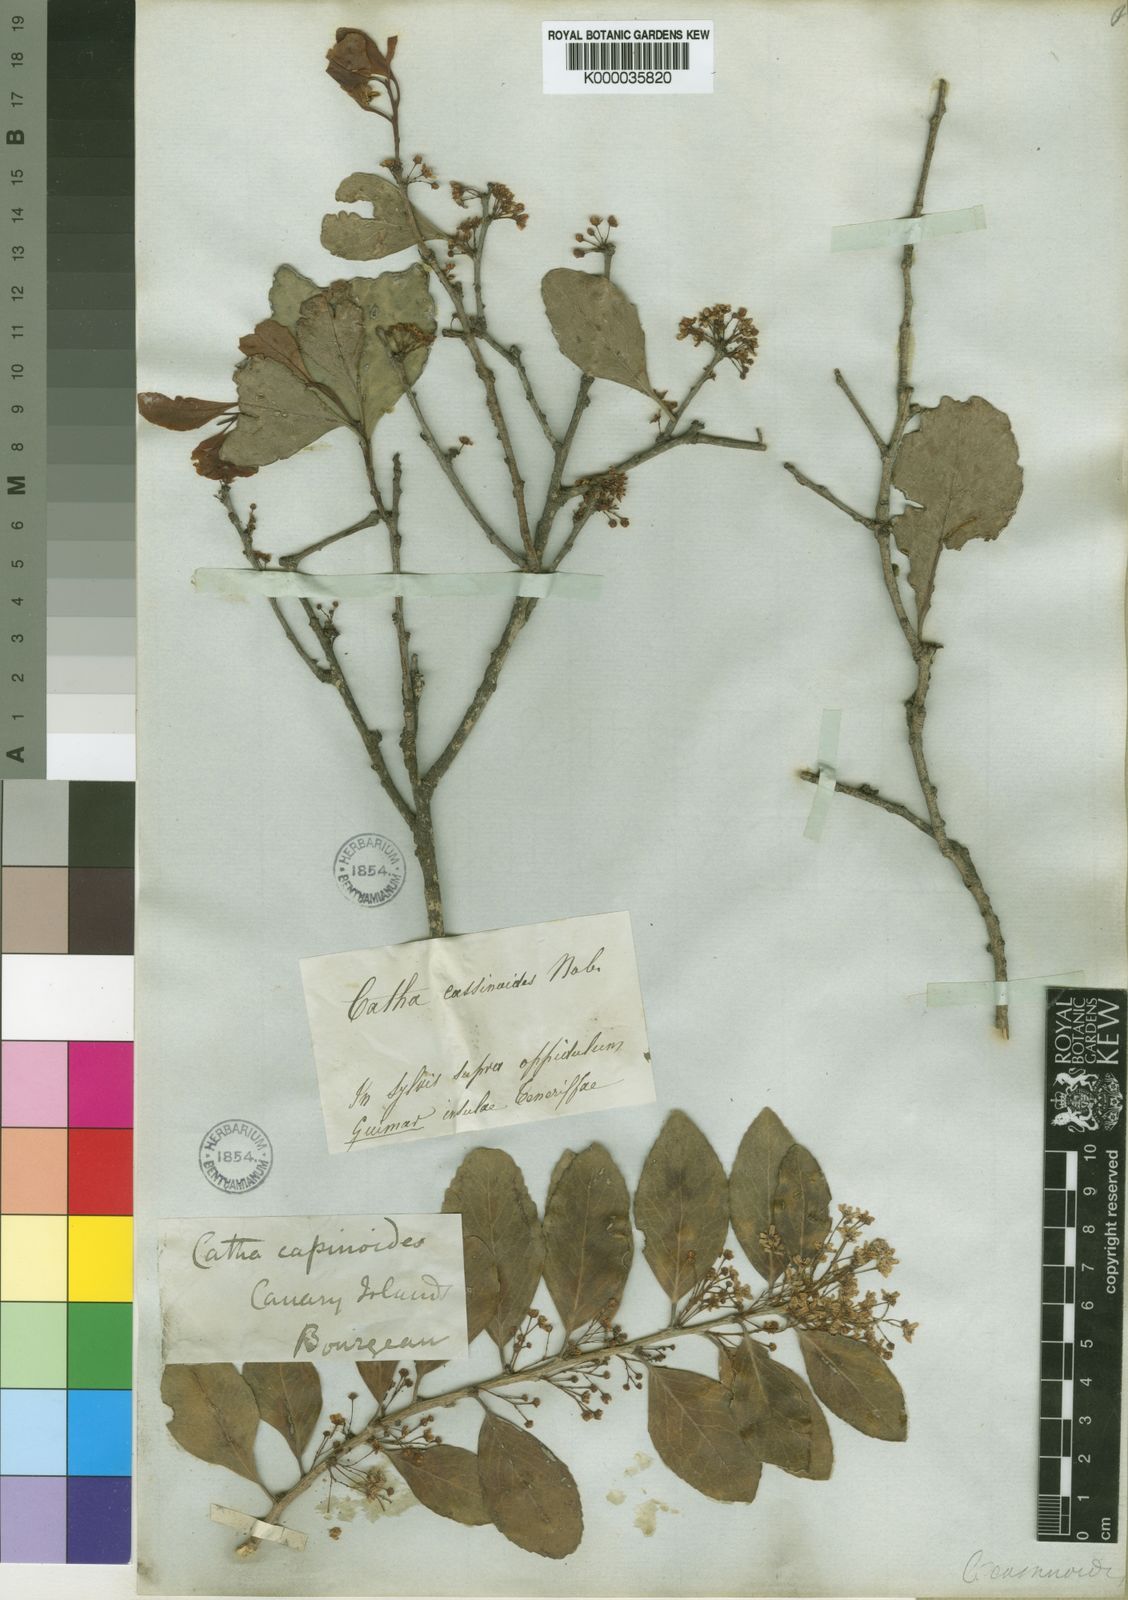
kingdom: Plantae
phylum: Tracheophyta
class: Magnoliopsida
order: Celastrales
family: Celastraceae
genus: Gymnosporia
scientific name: Gymnosporia
